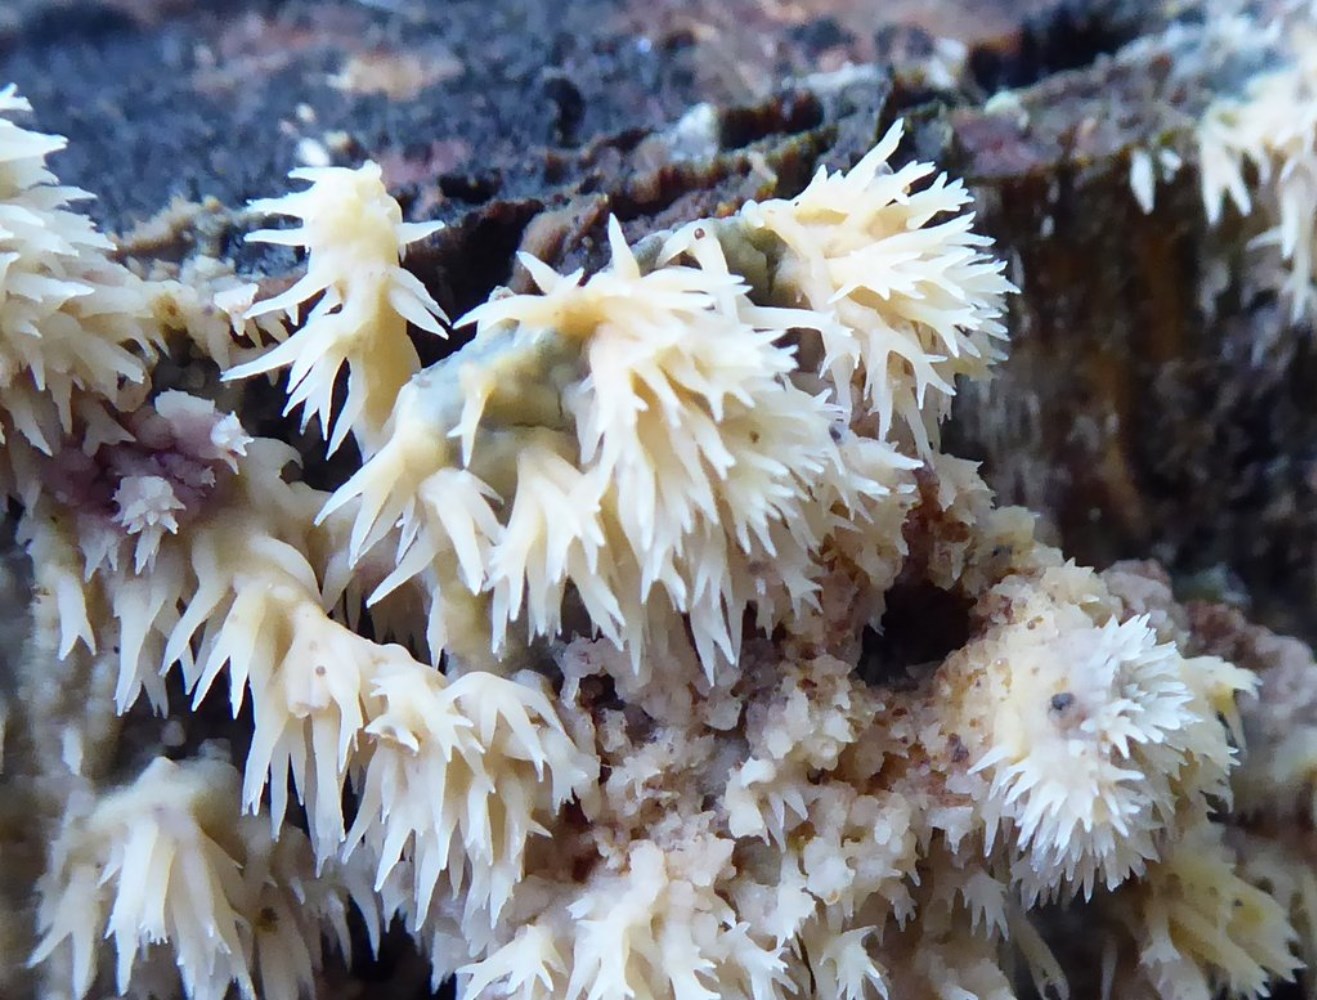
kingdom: Fungi
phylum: Basidiomycota
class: Agaricomycetes
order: Polyporales
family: Meruliaceae
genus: Phlebia
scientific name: Phlebia
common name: åresvamp
